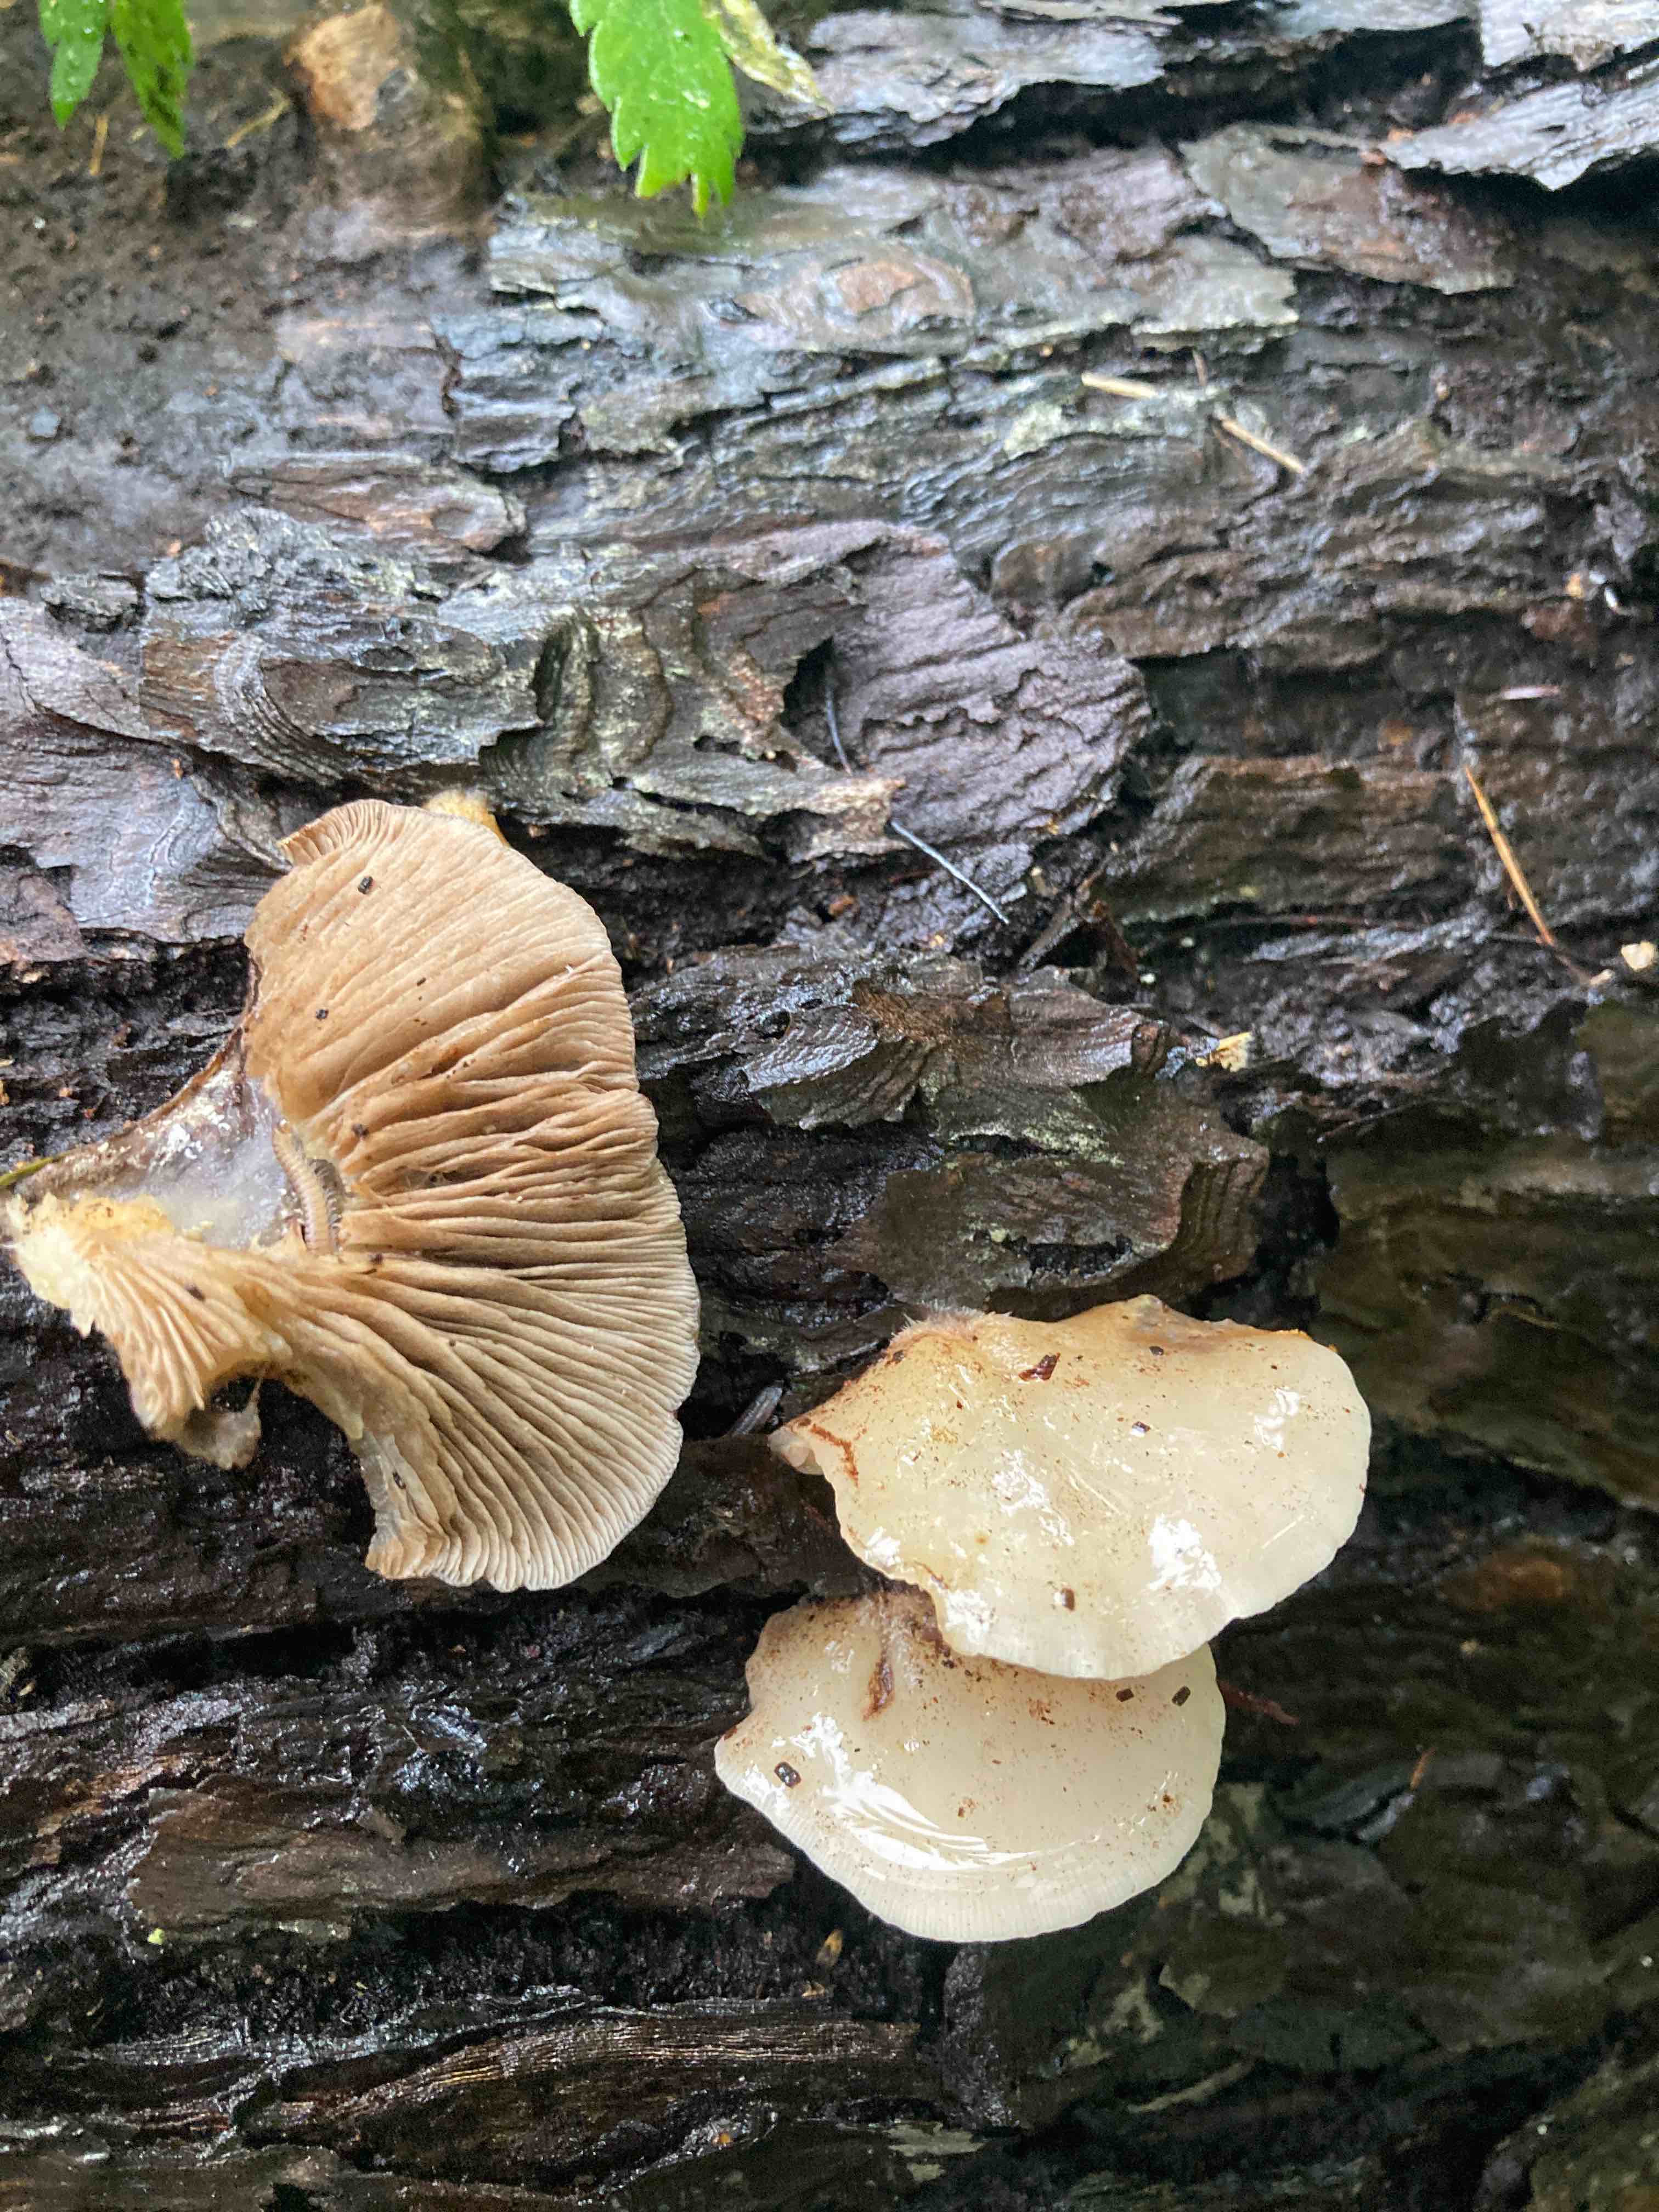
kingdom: Fungi
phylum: Basidiomycota
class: Agaricomycetes
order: Agaricales
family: Crepidotaceae
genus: Crepidotus
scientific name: Crepidotus mollis
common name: blød muslingesvamp
